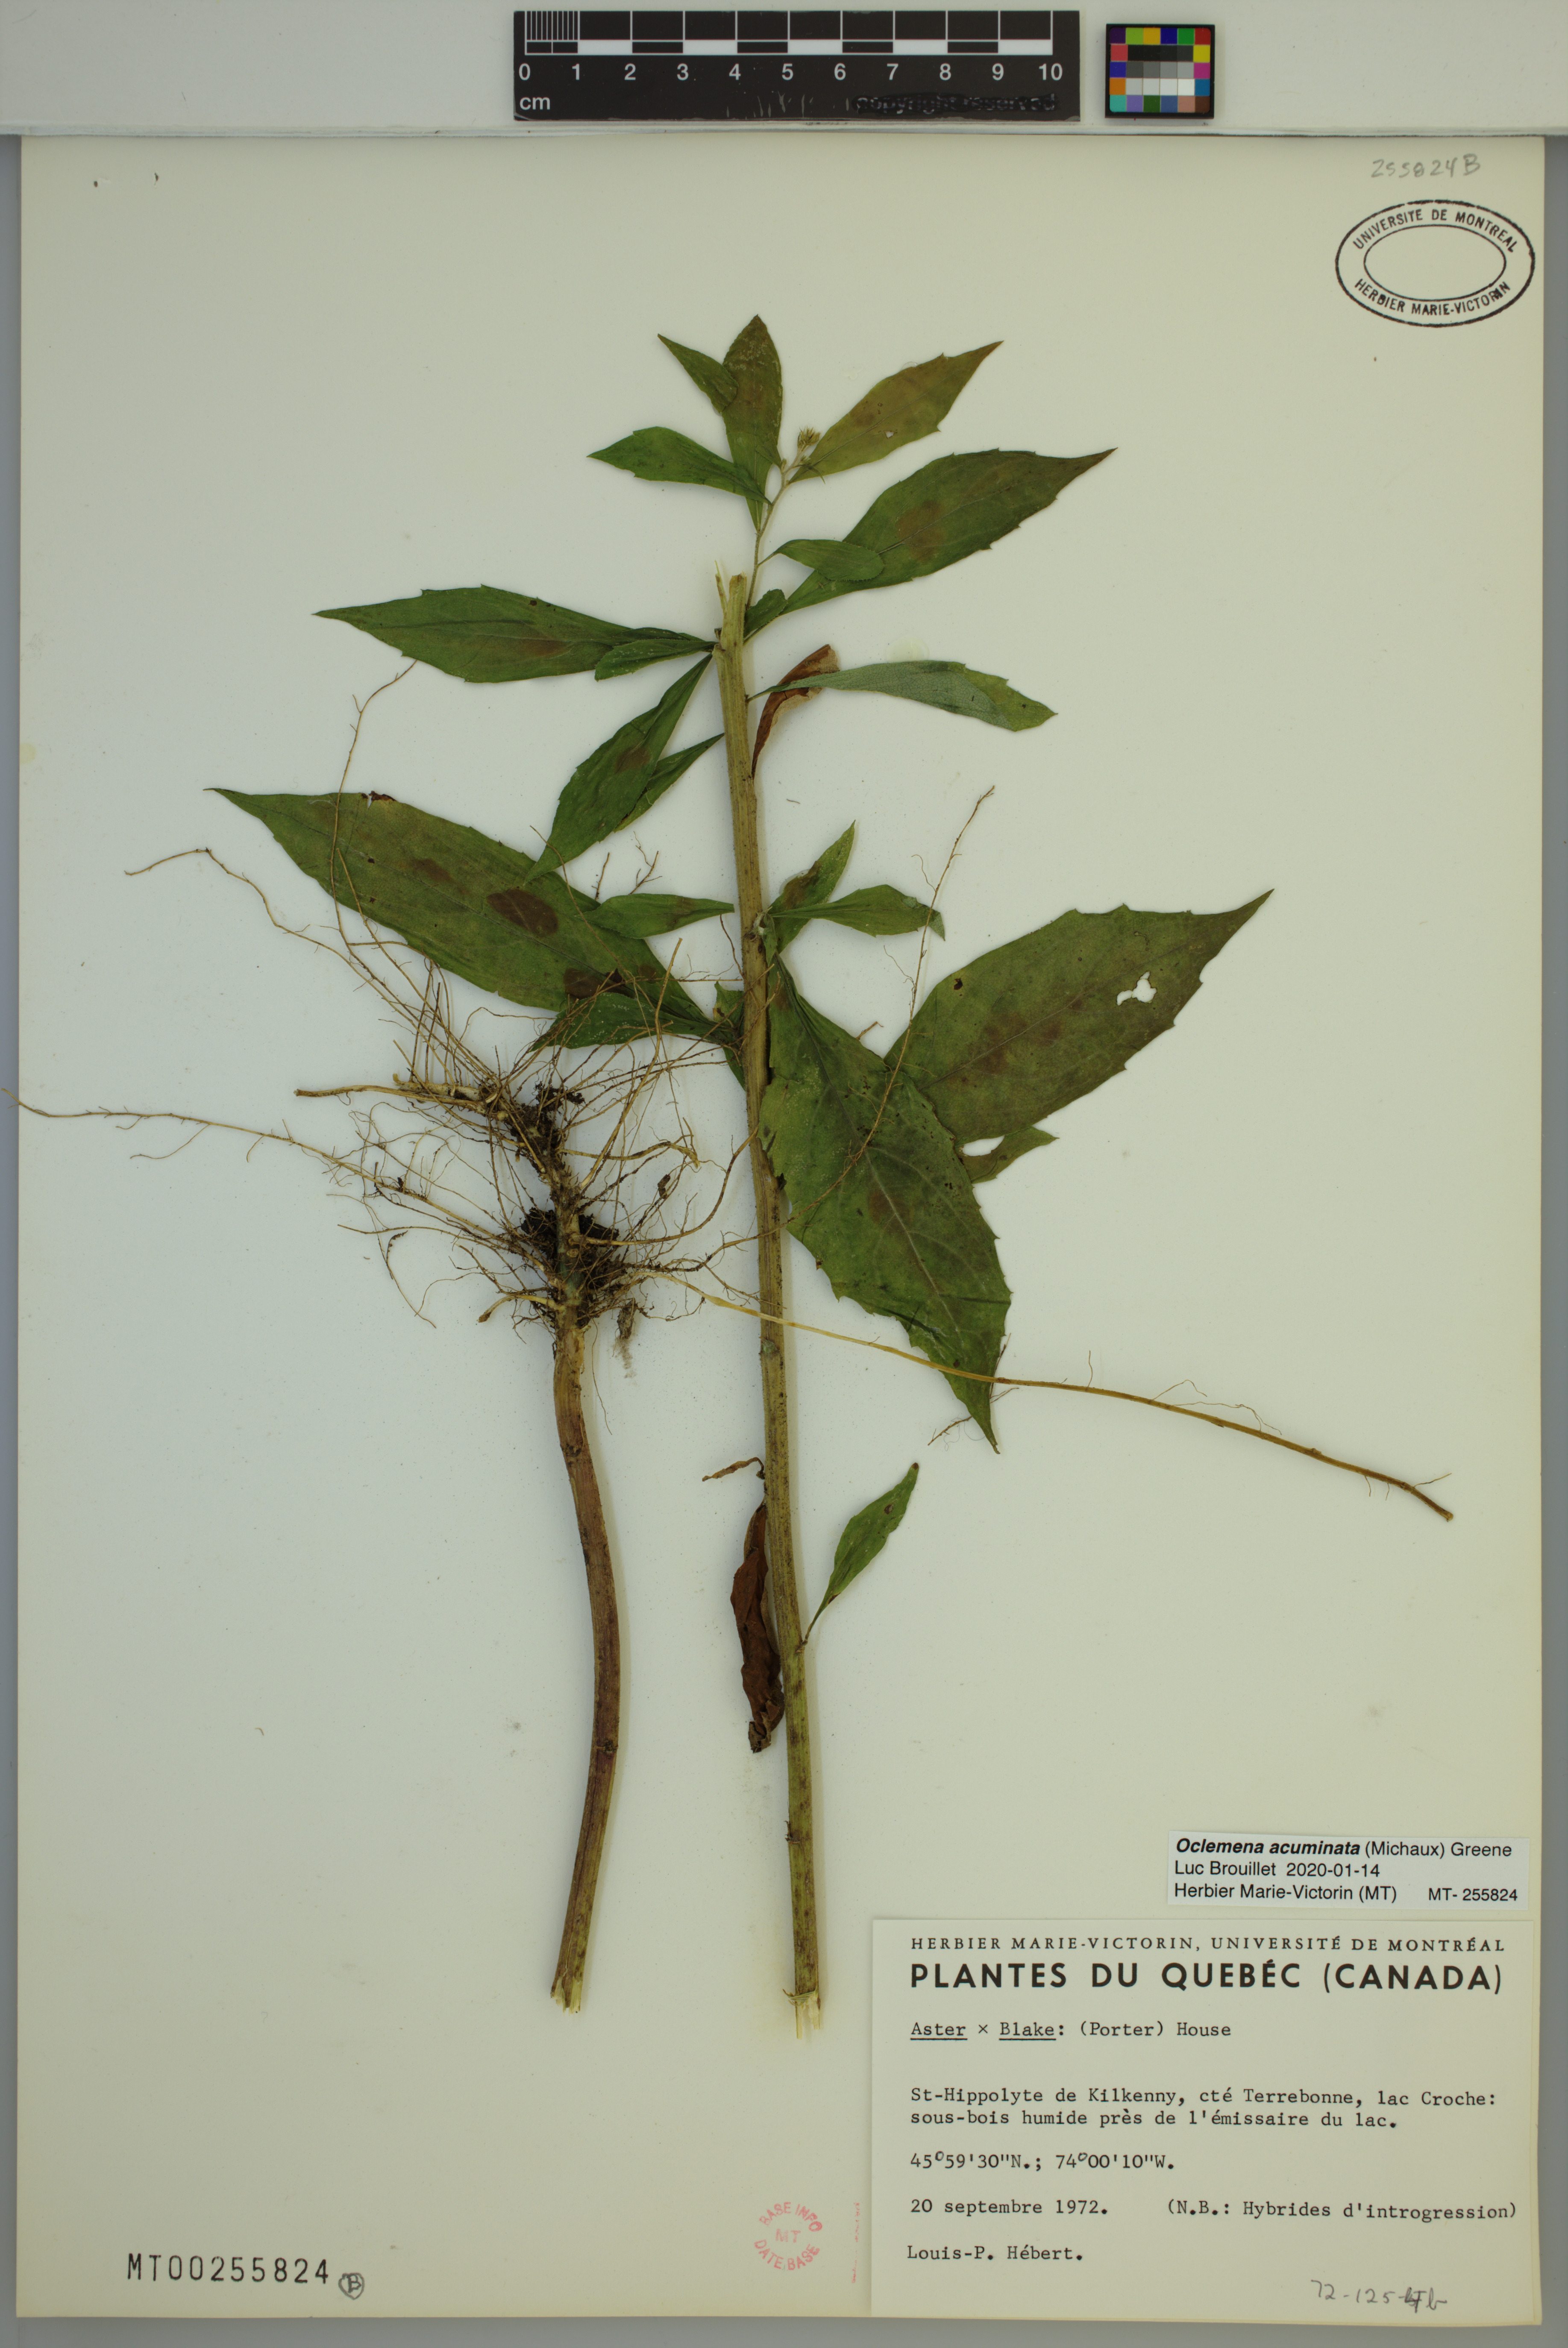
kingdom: Plantae
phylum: Tracheophyta
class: Magnoliopsida
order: Asterales
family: Asteraceae
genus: Oclemena
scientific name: Oclemena acuminata
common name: Mountain aster
